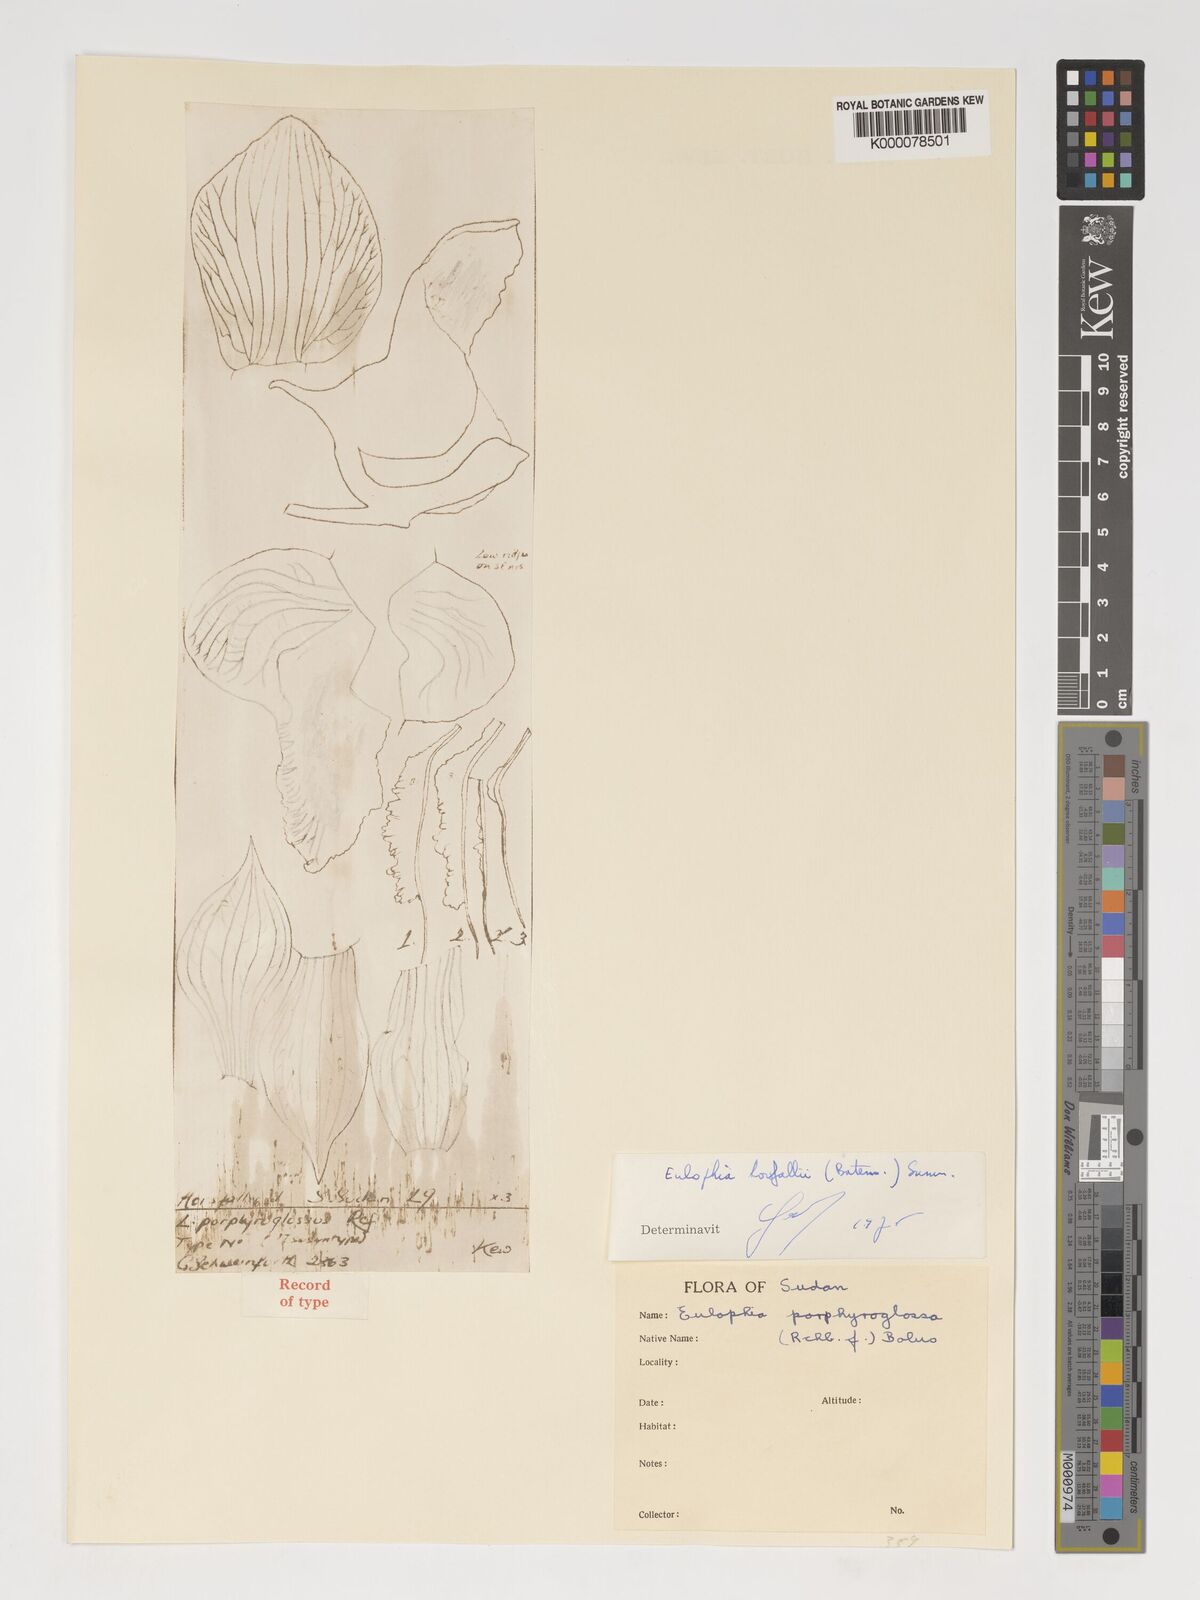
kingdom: Plantae
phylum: Tracheophyta
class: Liliopsida
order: Asparagales
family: Orchidaceae
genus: Eulophia
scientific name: Eulophia horsfallii
